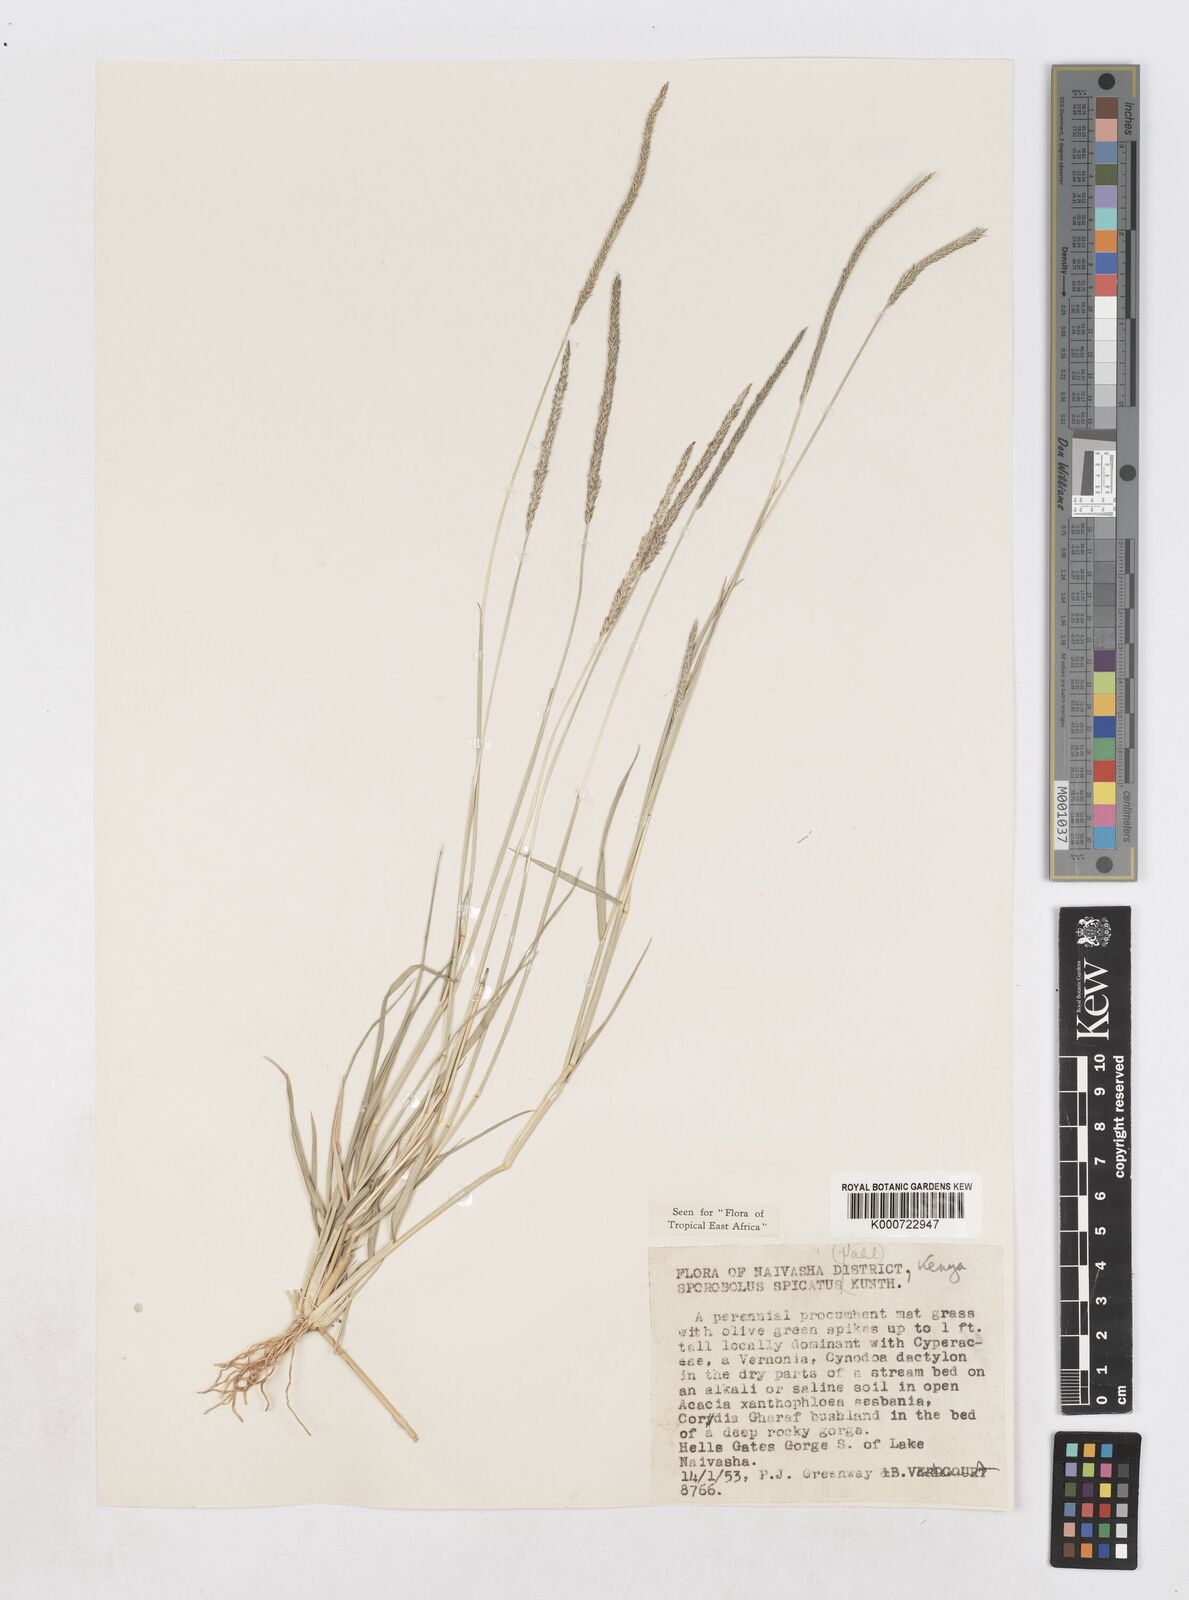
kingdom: Plantae
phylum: Tracheophyta
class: Liliopsida
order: Poales
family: Poaceae
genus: Sporobolus
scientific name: Sporobolus spicatus
